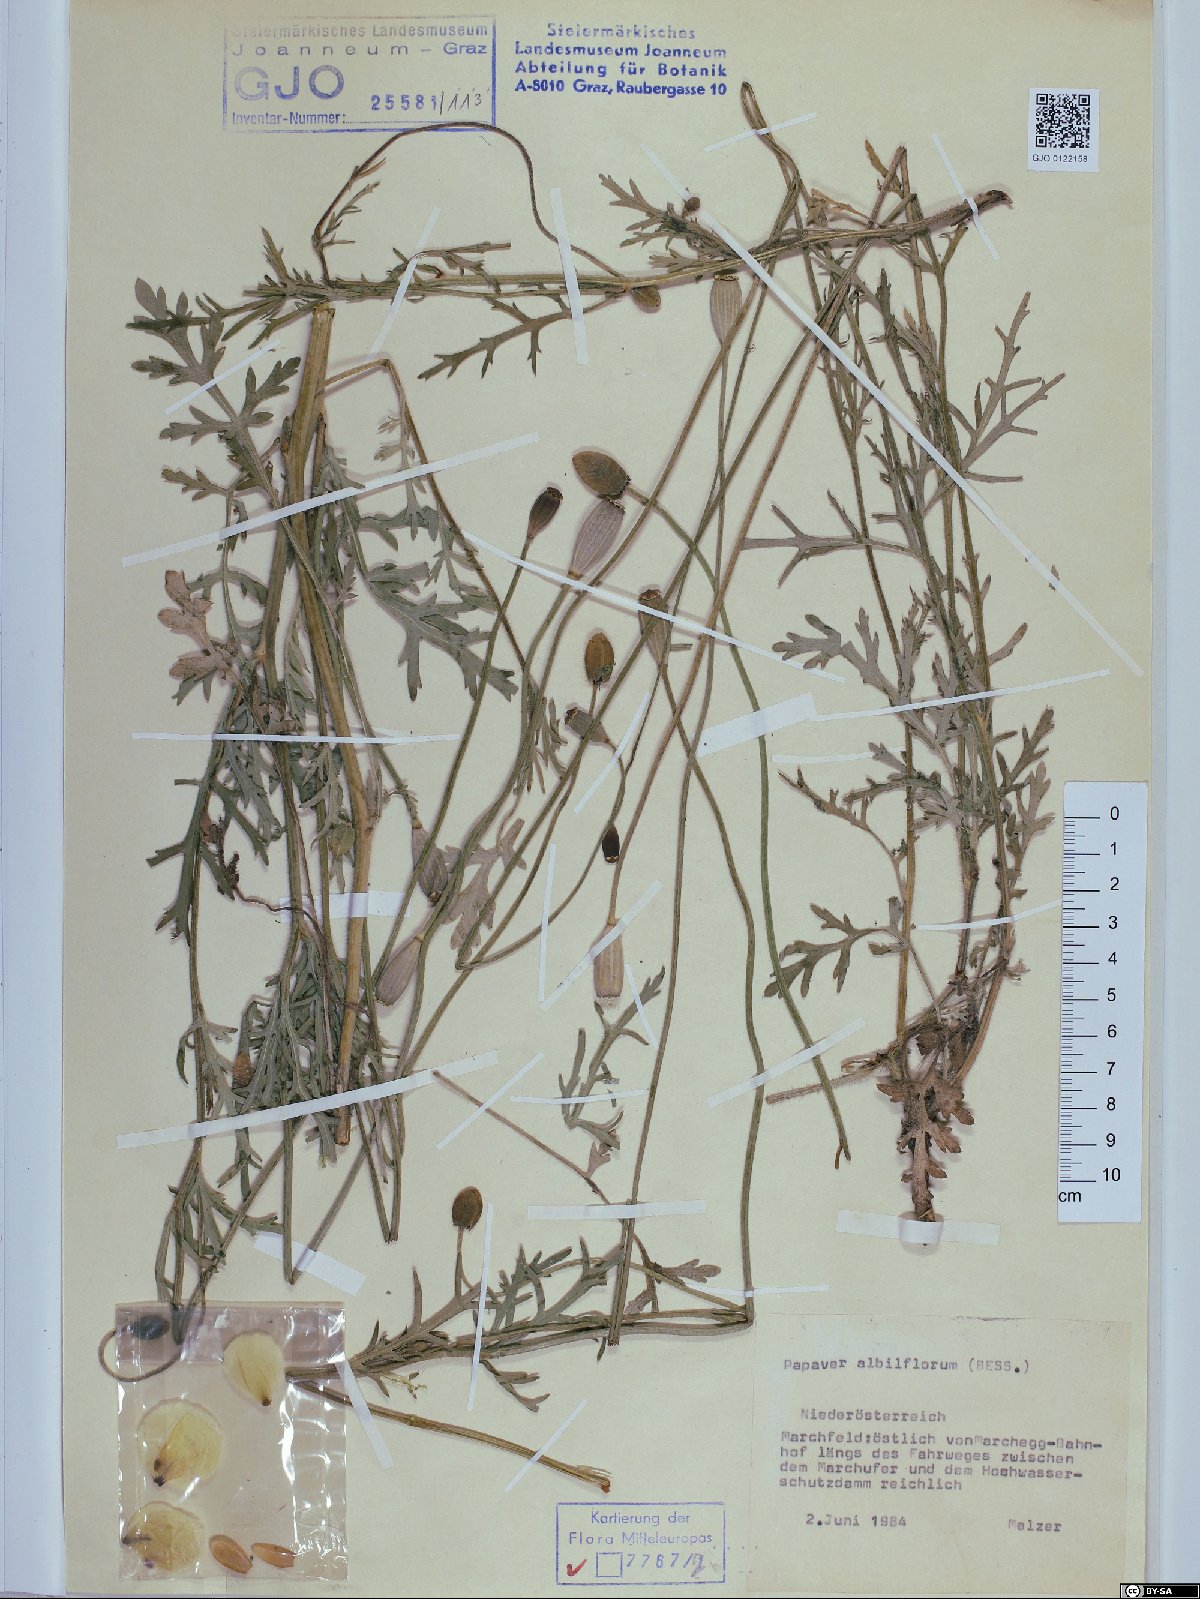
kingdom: Plantae
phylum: Tracheophyta
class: Magnoliopsida
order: Ranunculales
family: Papaveraceae
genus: Papaver
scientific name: Papaver dubium
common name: Long-headed poppy
